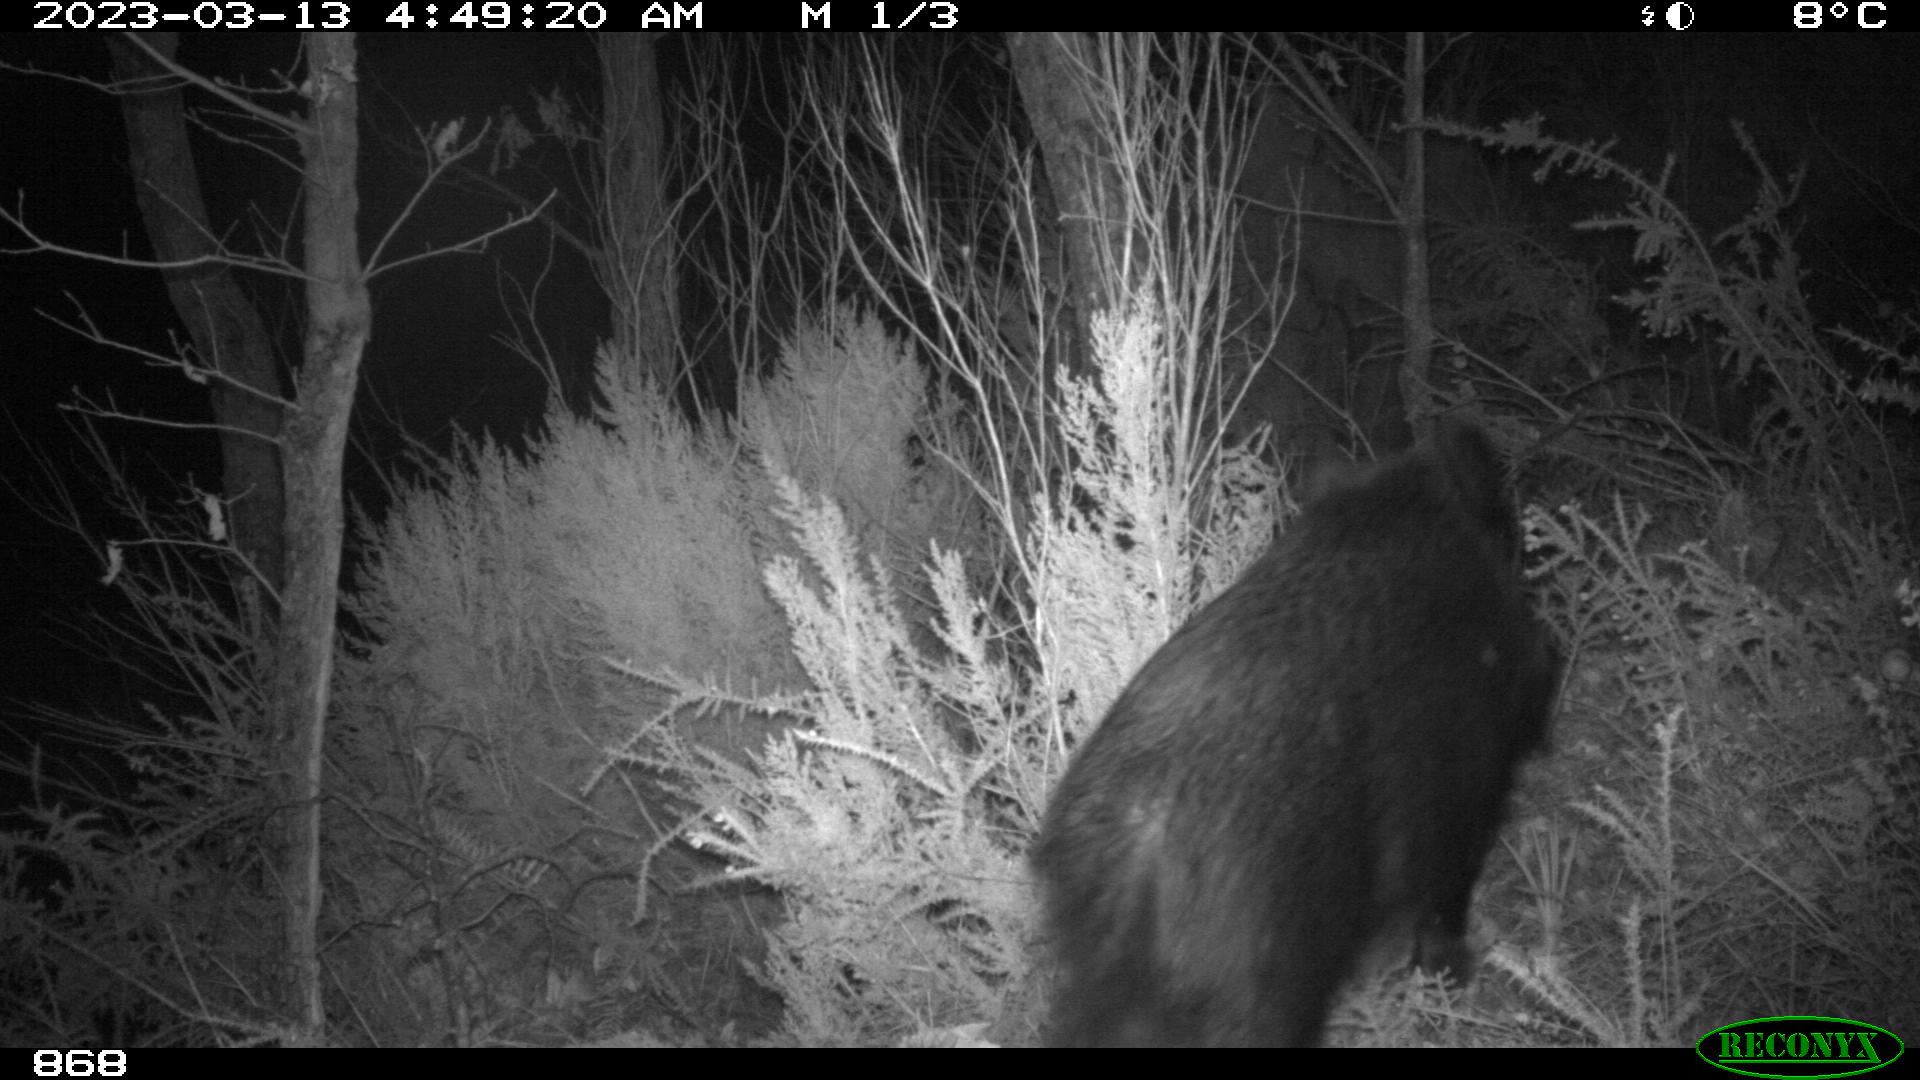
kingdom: Animalia
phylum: Chordata
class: Mammalia
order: Artiodactyla
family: Suidae
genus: Sus
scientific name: Sus scrofa
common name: Wild boar
